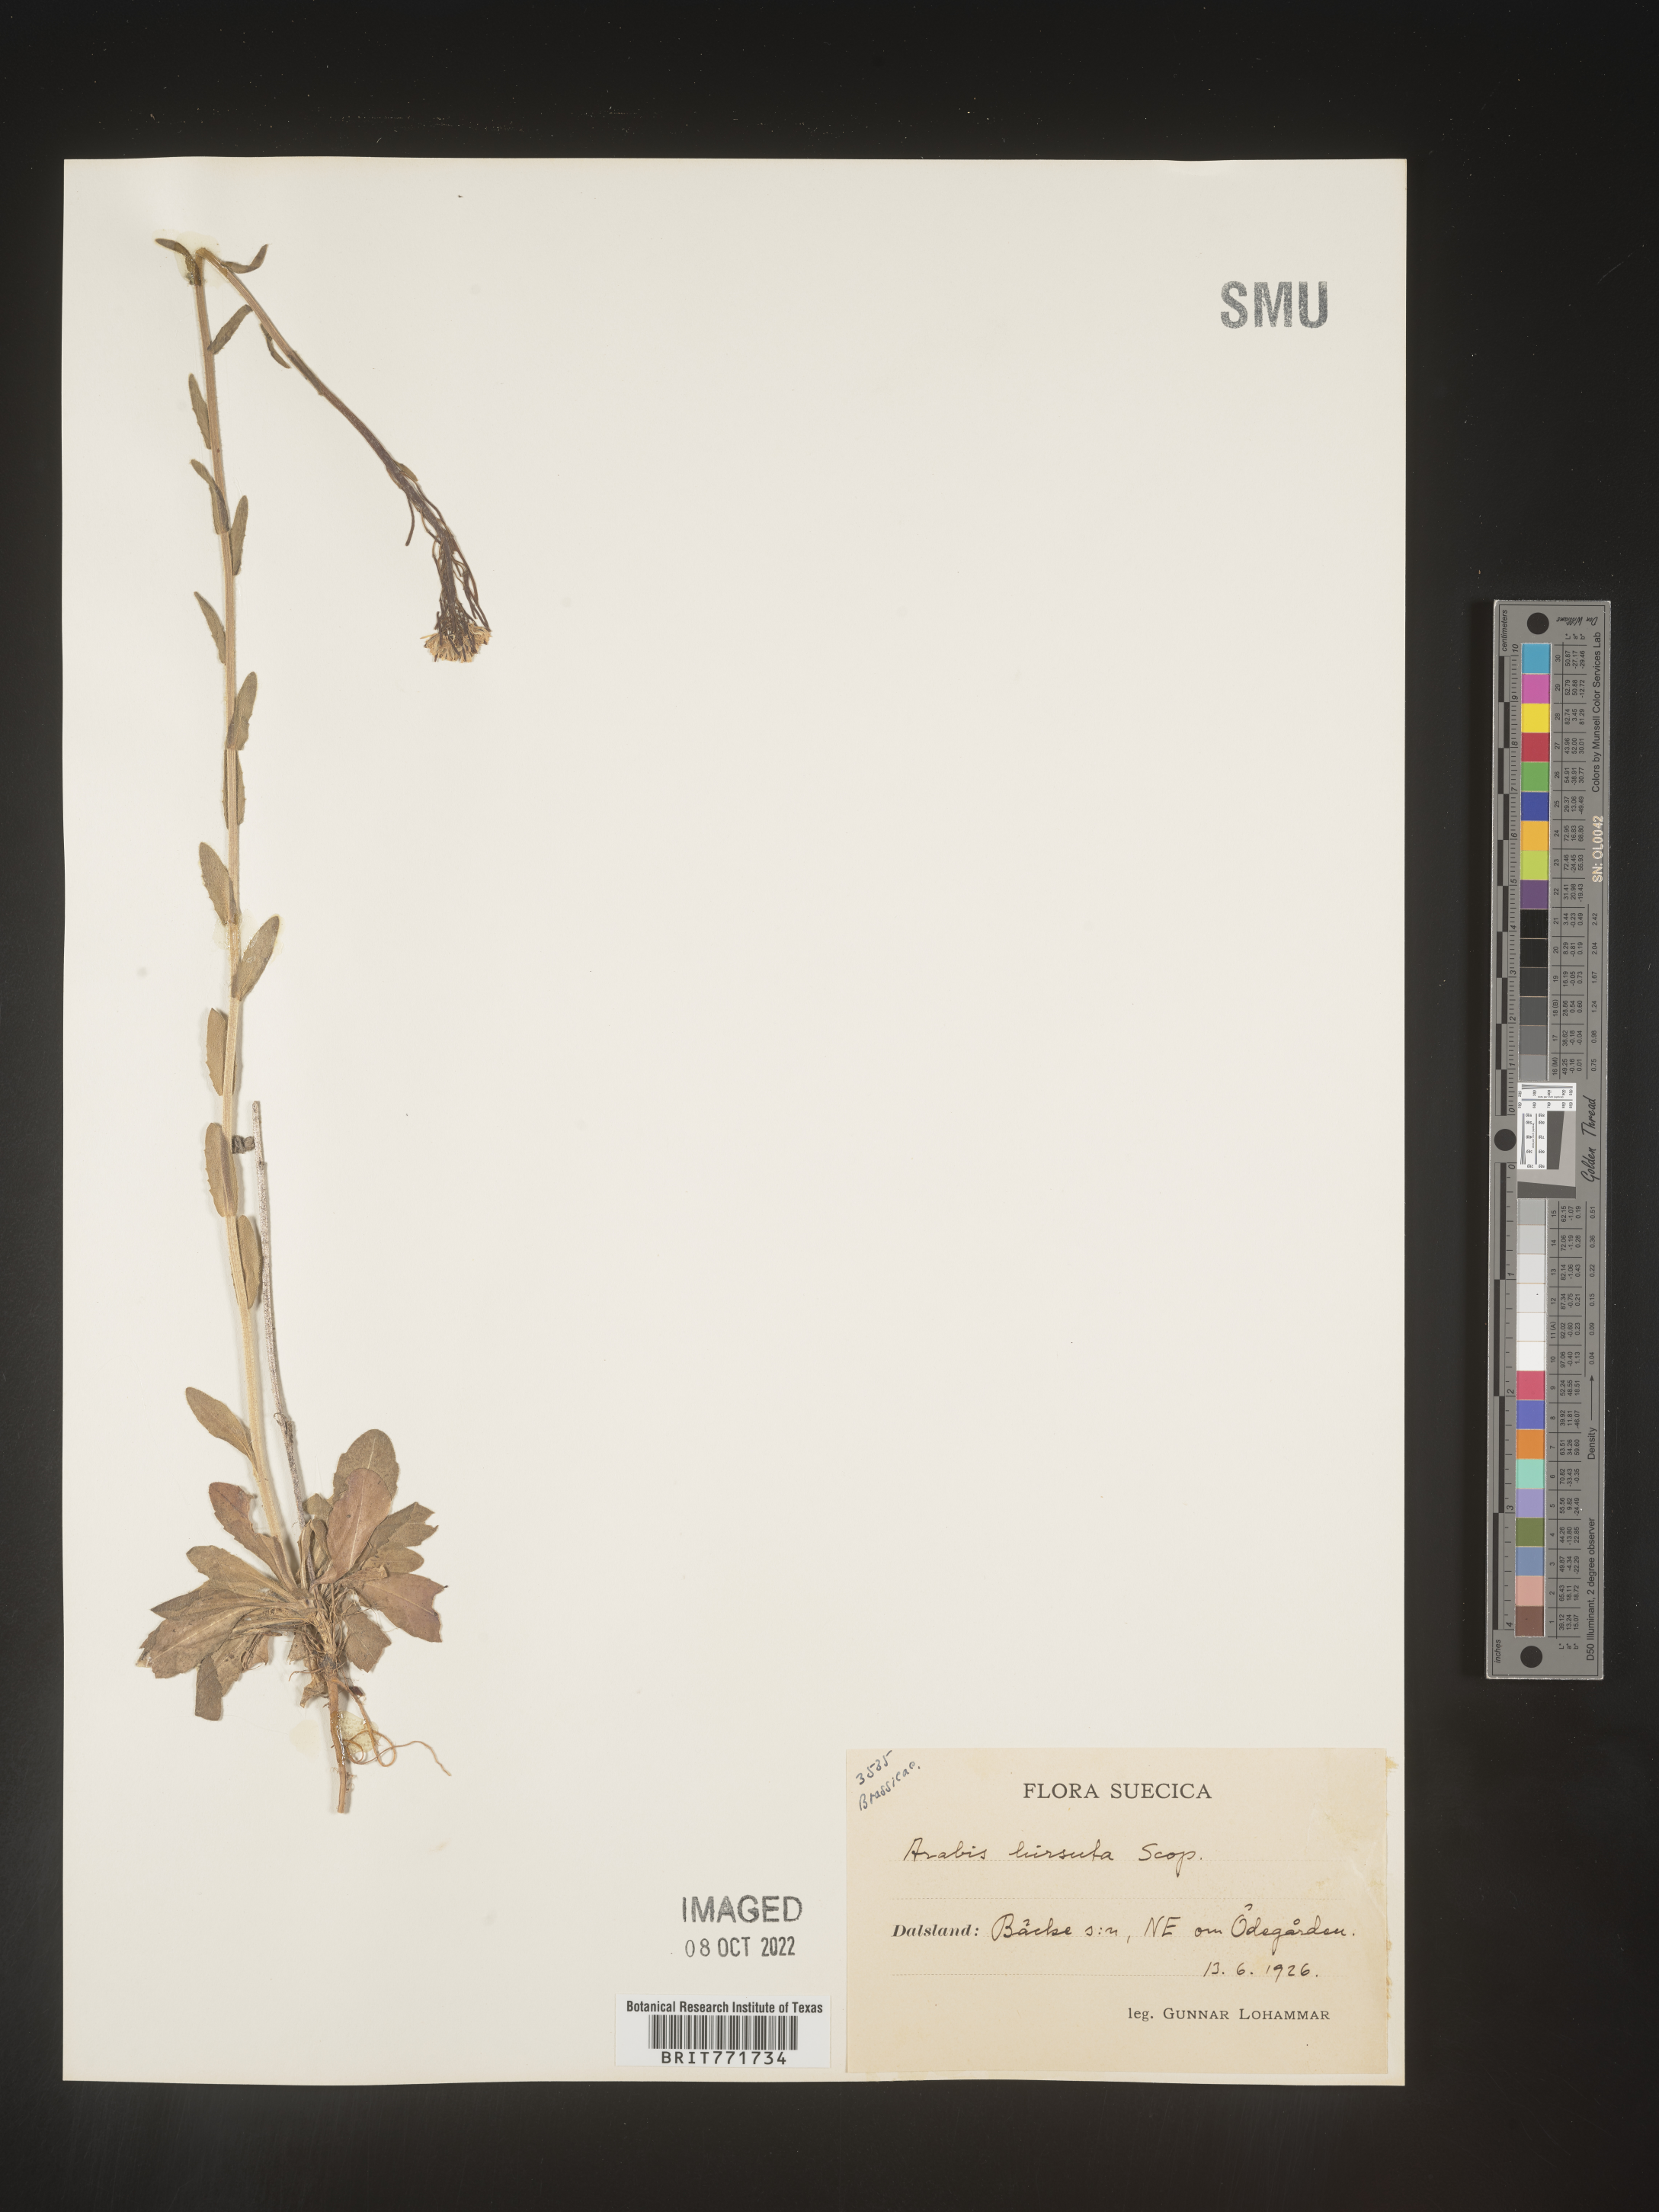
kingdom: Plantae
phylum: Tracheophyta
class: Magnoliopsida
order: Brassicales
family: Brassicaceae
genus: Arabis
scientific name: Arabis
